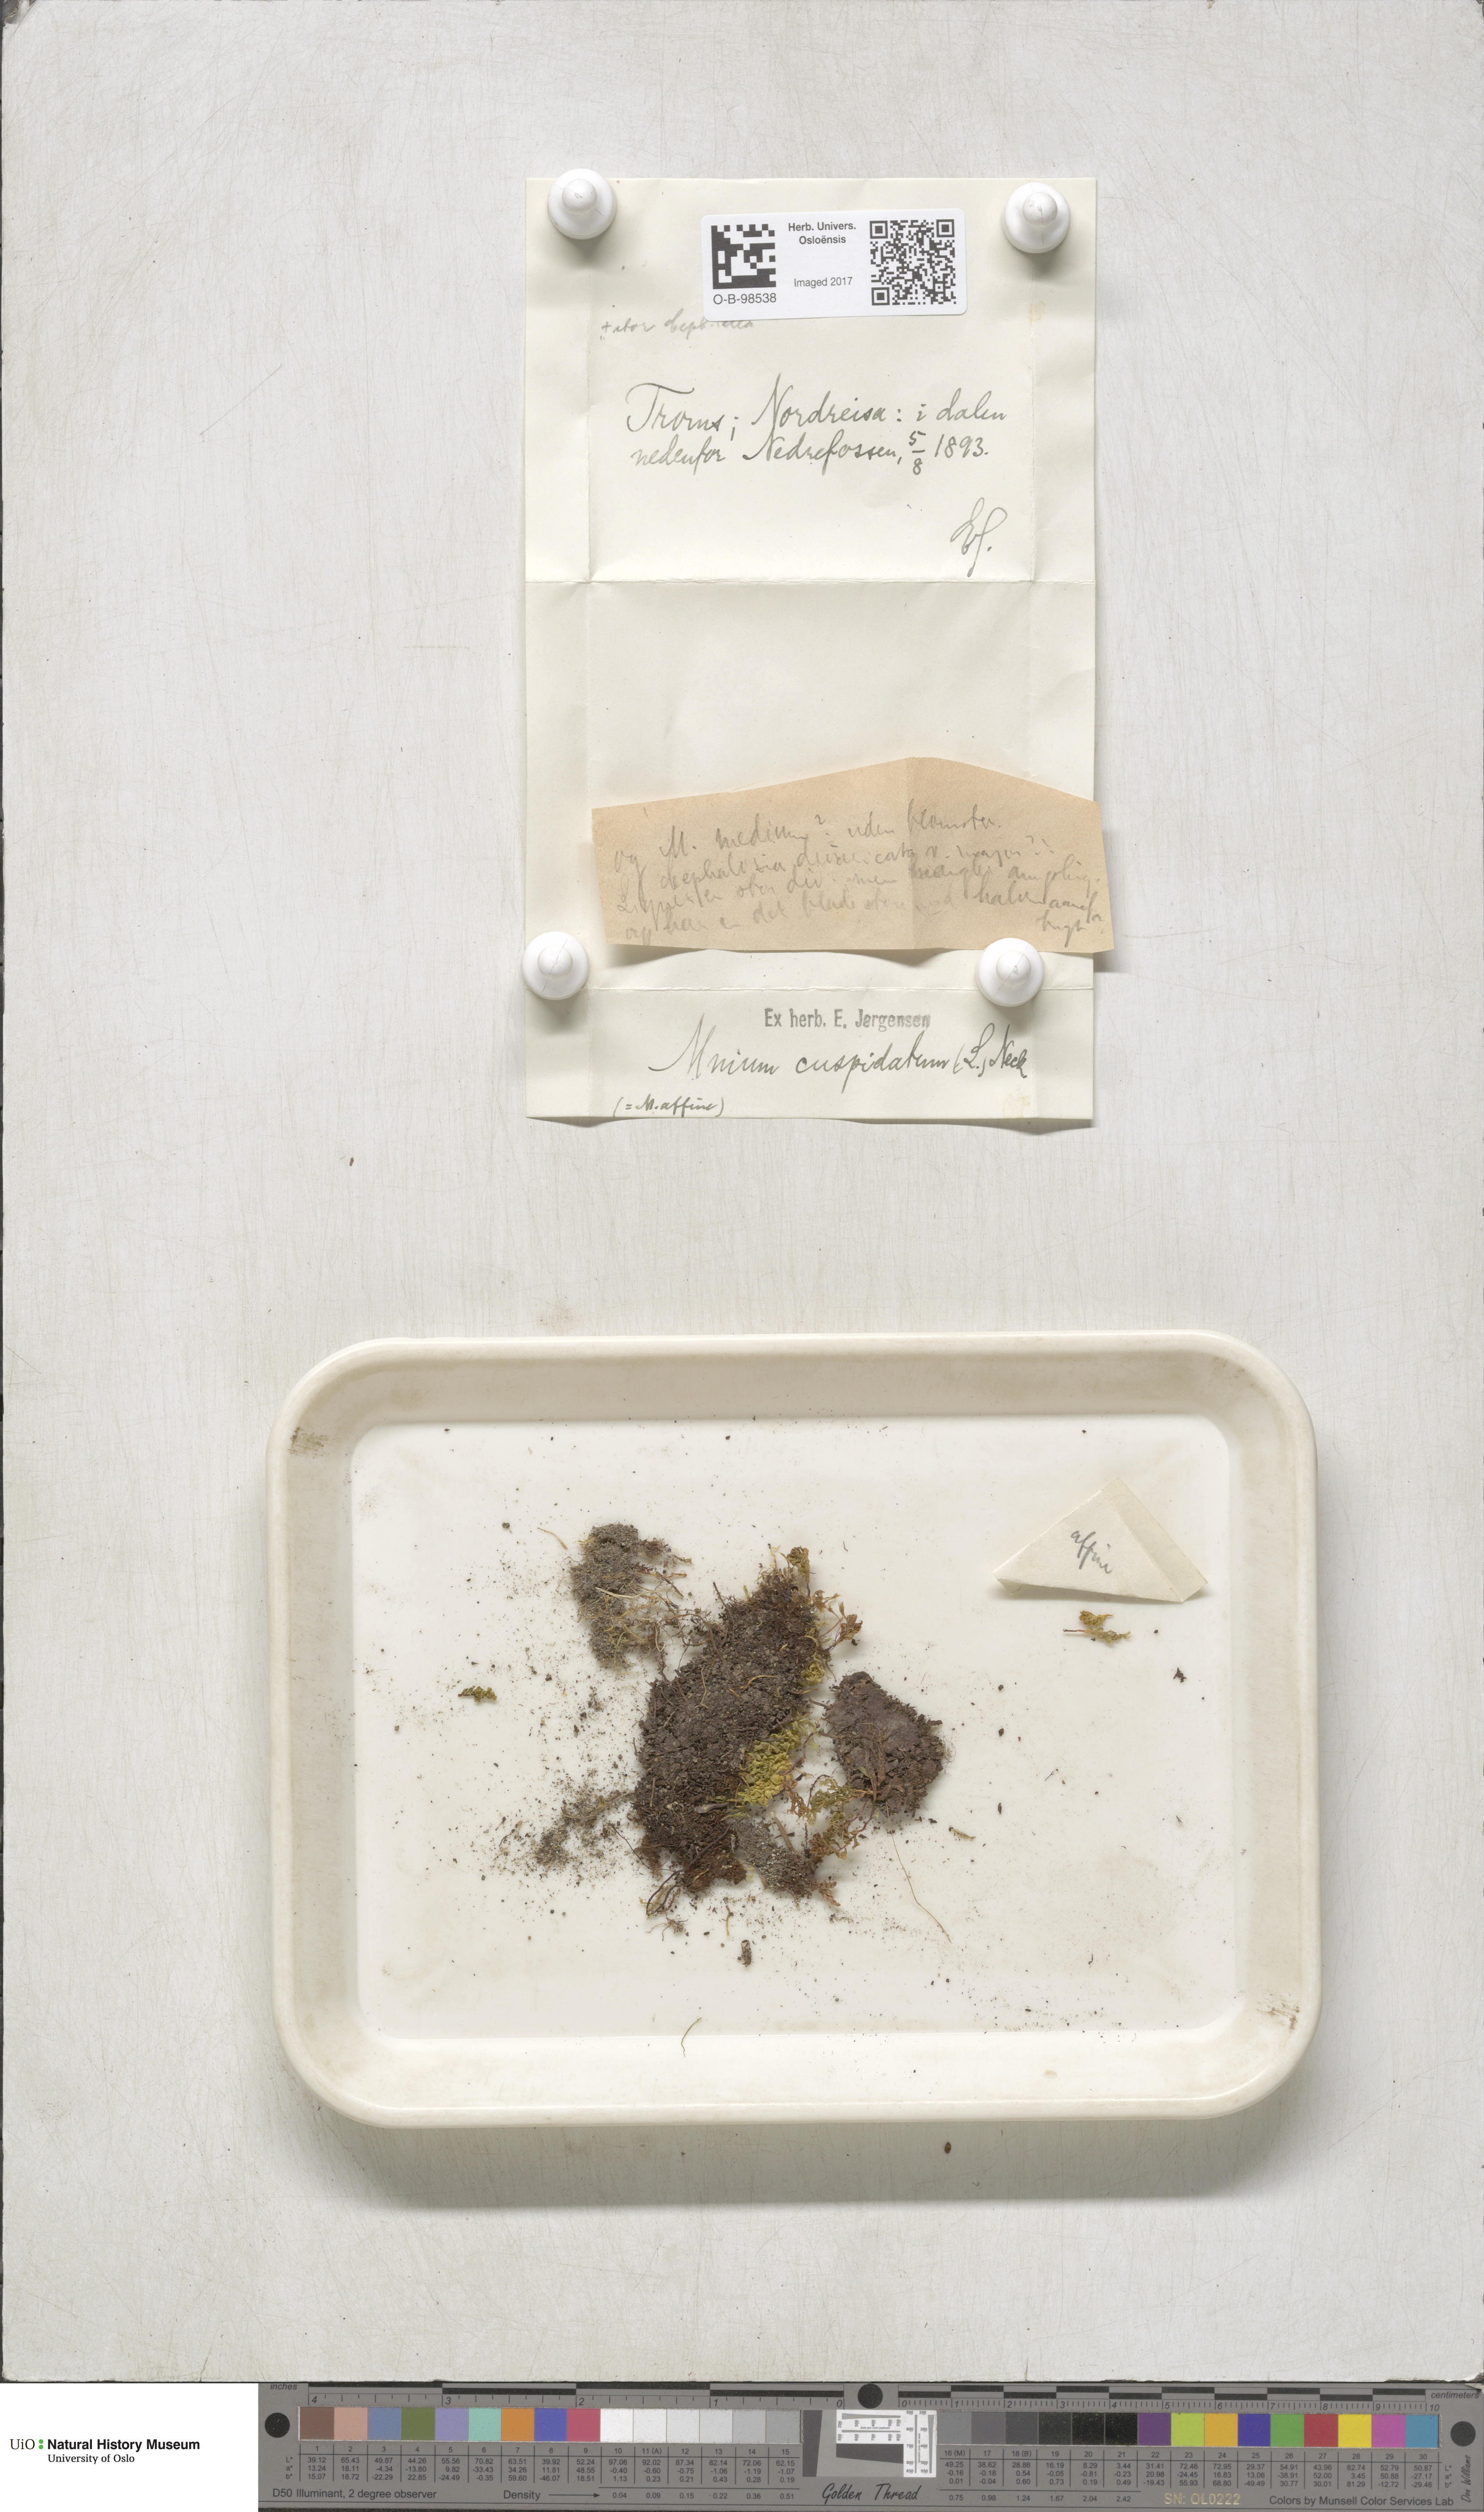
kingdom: Plantae
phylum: Bryophyta
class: Bryopsida
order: Bryales
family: Mniaceae
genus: Plagiomnium
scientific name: Plagiomnium cuspidatum
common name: Woodsy leafy moss
